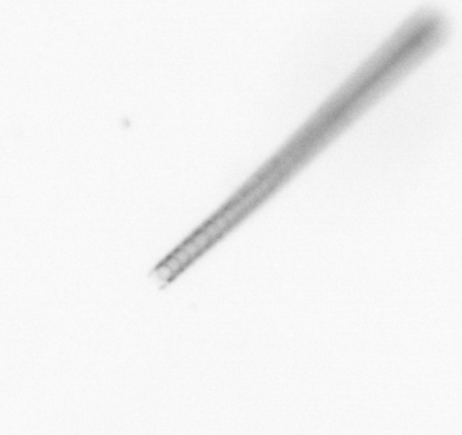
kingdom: Chromista
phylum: Ochrophyta
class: Bacillariophyceae
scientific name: Bacillariophyceae
